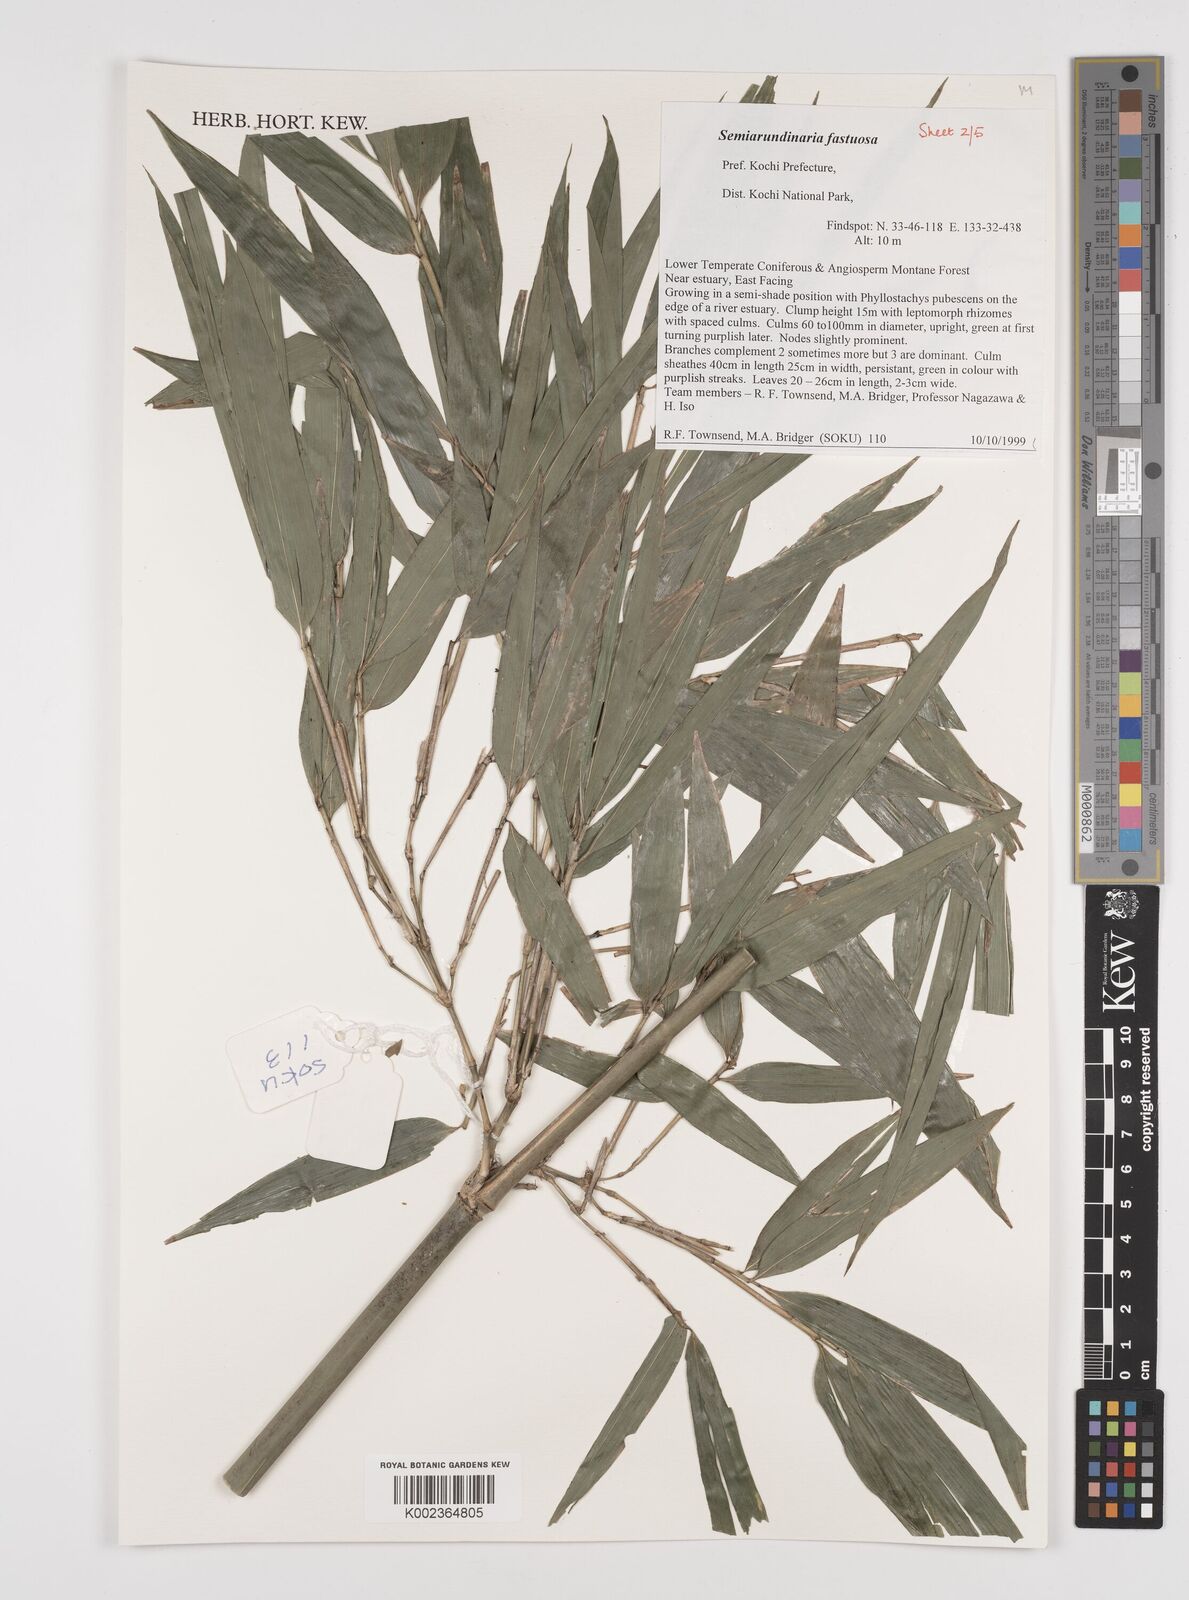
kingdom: Plantae
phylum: Tracheophyta
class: Liliopsida
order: Poales
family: Poaceae
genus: Semiarundinaria
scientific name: Semiarundinaria fastuosa
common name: Narihira bamboo
